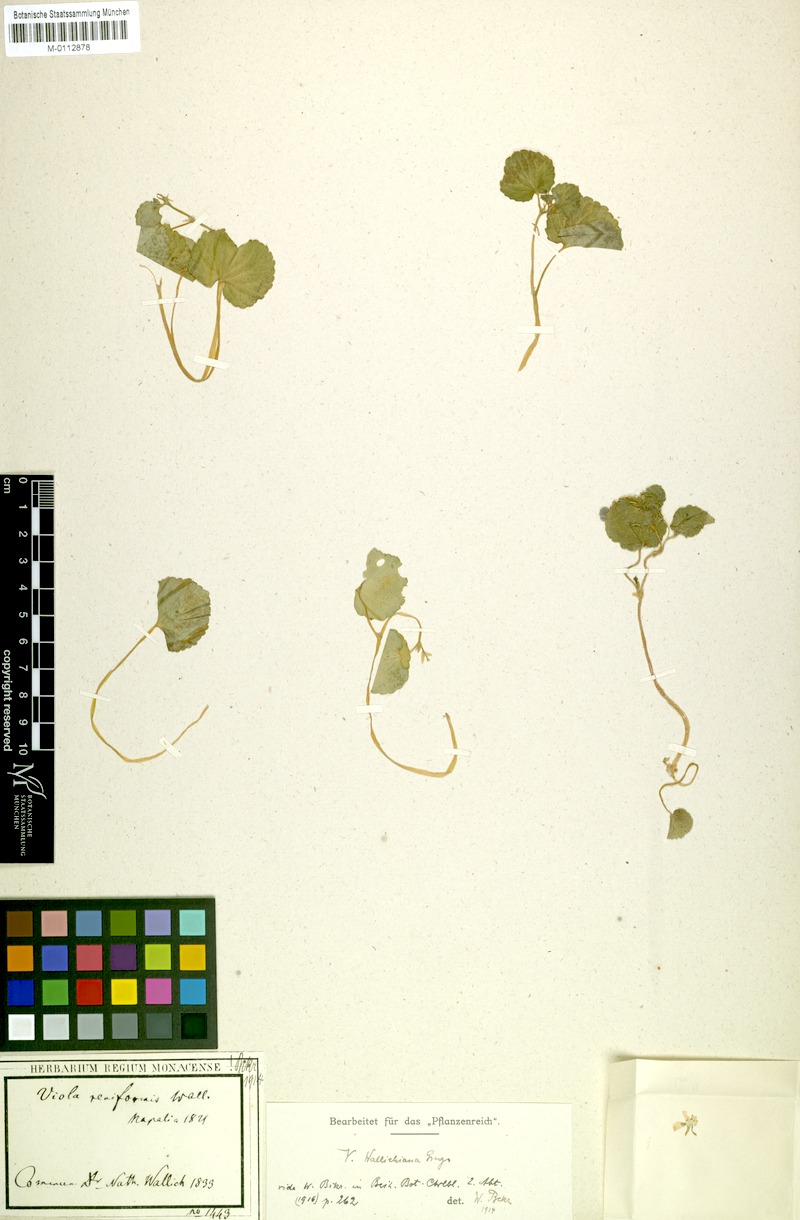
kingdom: Plantae
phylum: Tracheophyta
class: Magnoliopsida
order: Malpighiales
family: Violaceae
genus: Viola
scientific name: Viola wallichiana
